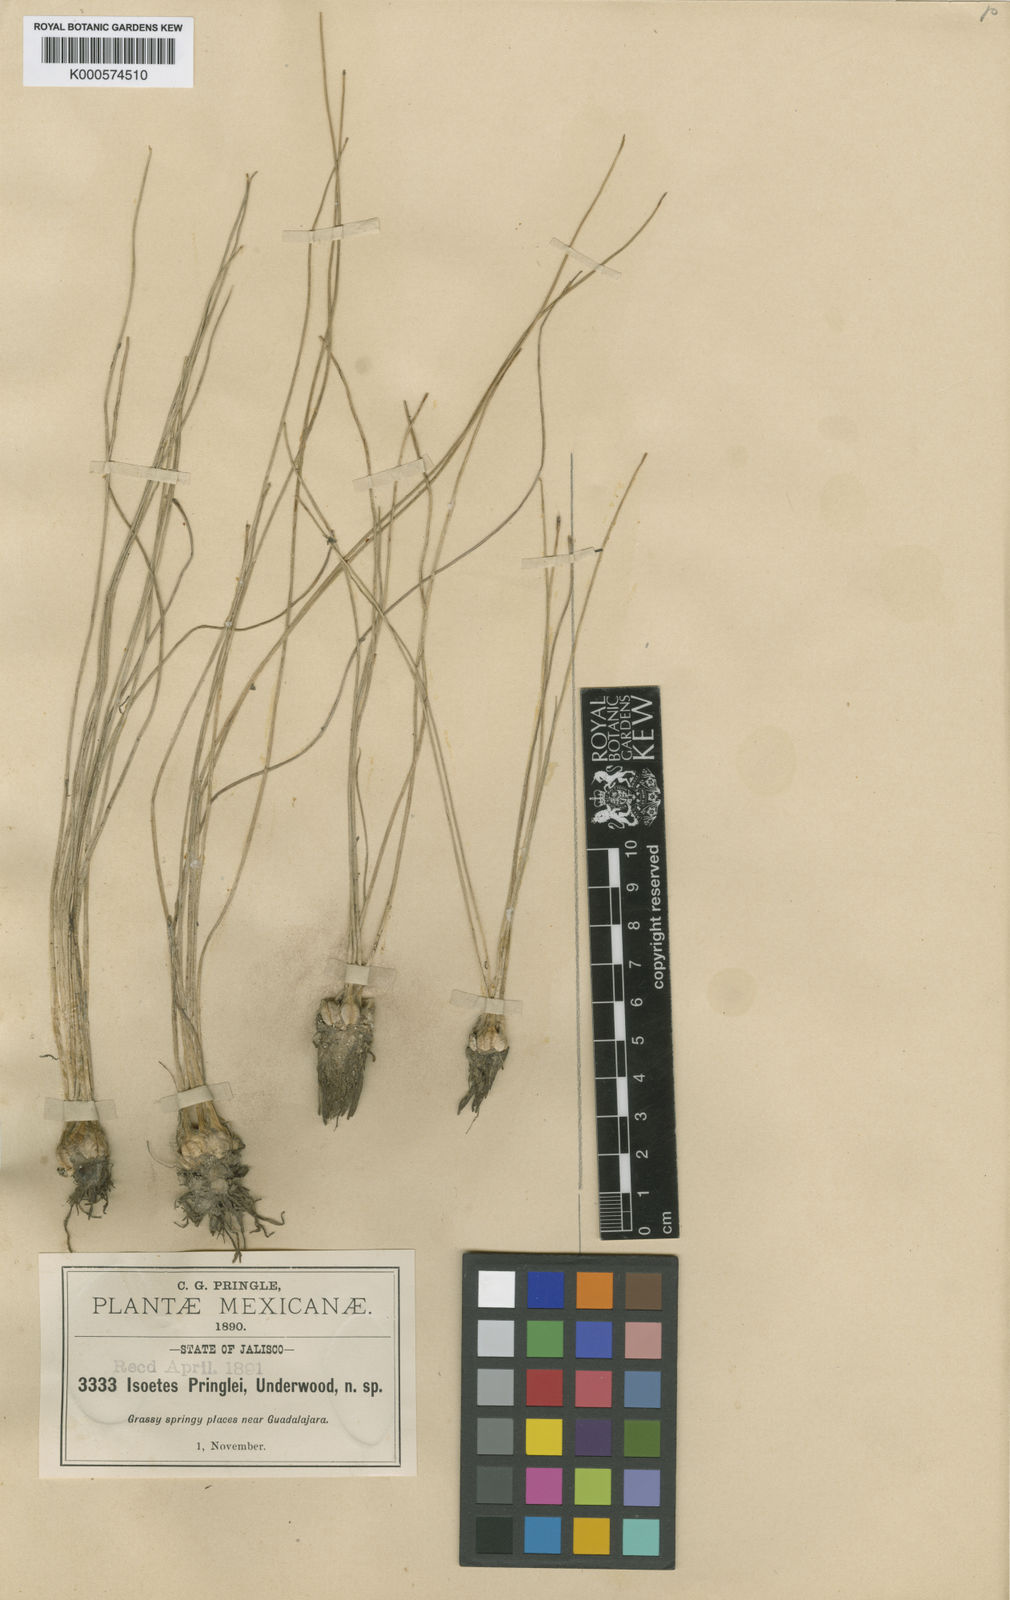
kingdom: Plantae
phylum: Tracheophyta
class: Lycopodiopsida
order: Isoetales
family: Isoetaceae
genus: Isoetes
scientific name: Isoetes pringlei
